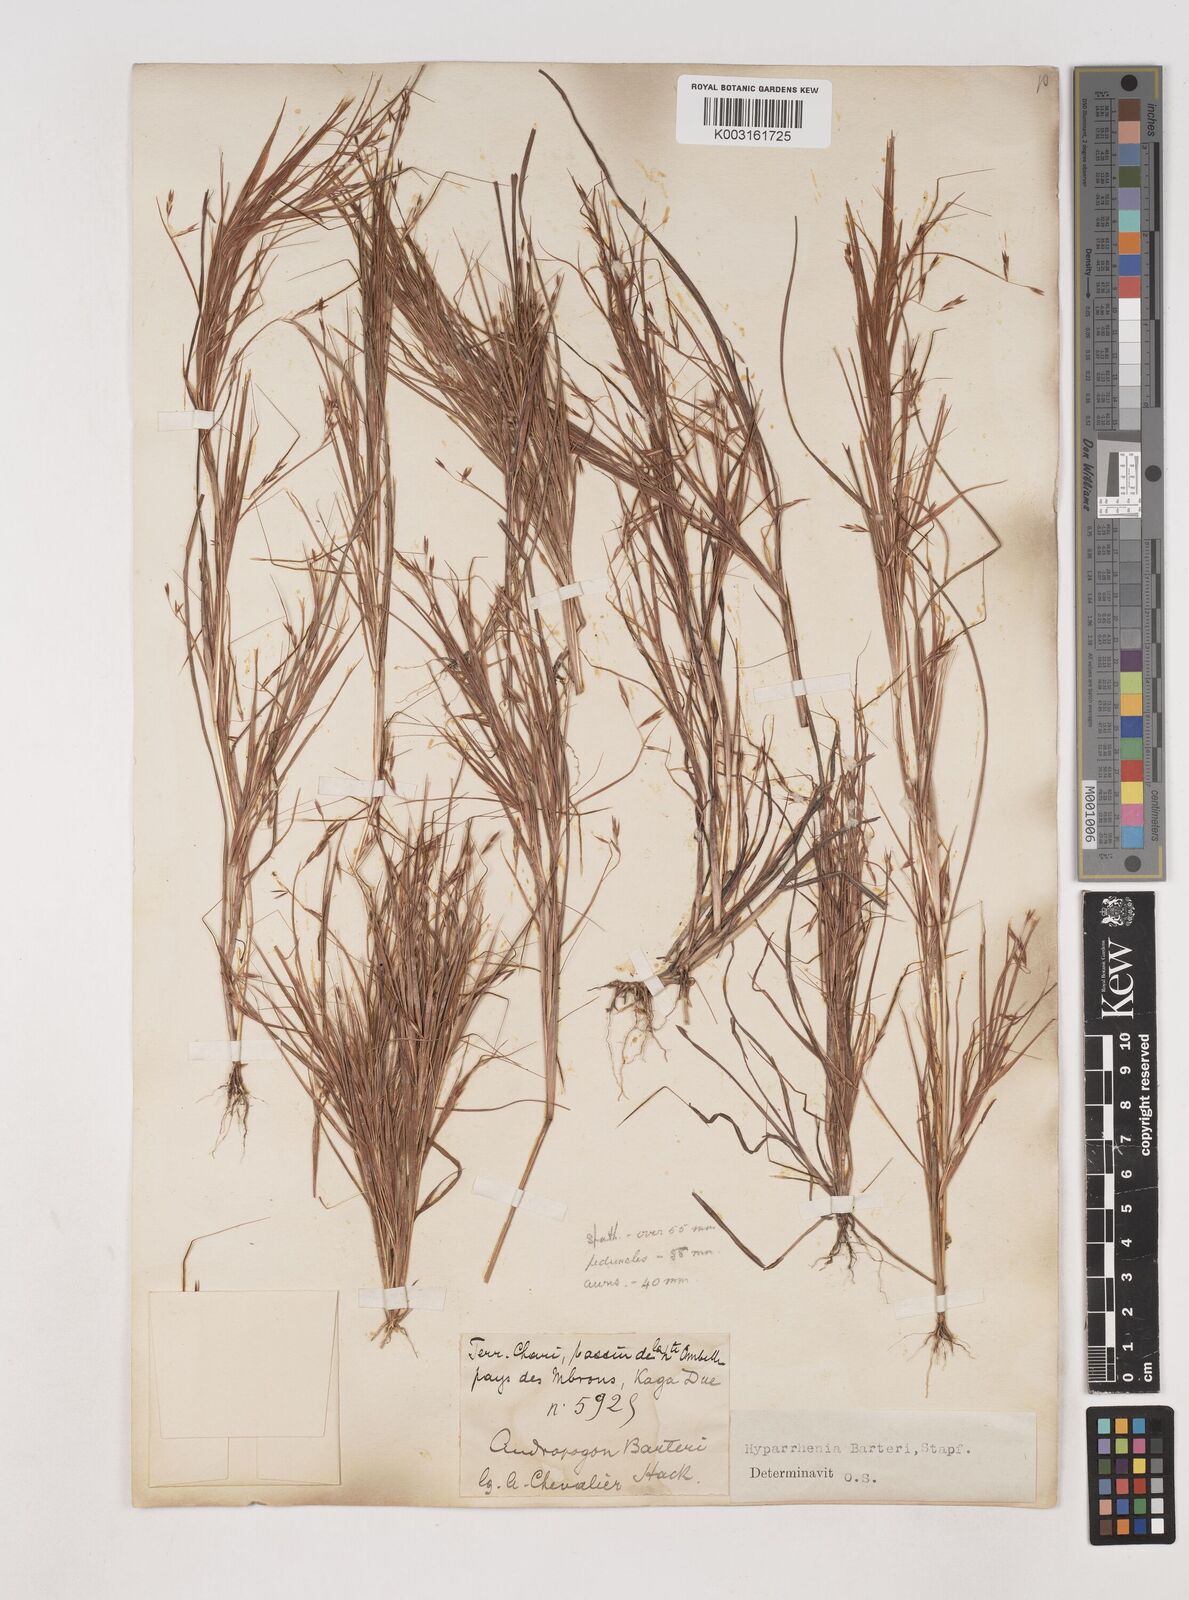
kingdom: Plantae
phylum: Tracheophyta
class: Liliopsida
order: Poales
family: Poaceae
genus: Hyparrhenia
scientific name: Hyparrhenia barteri
